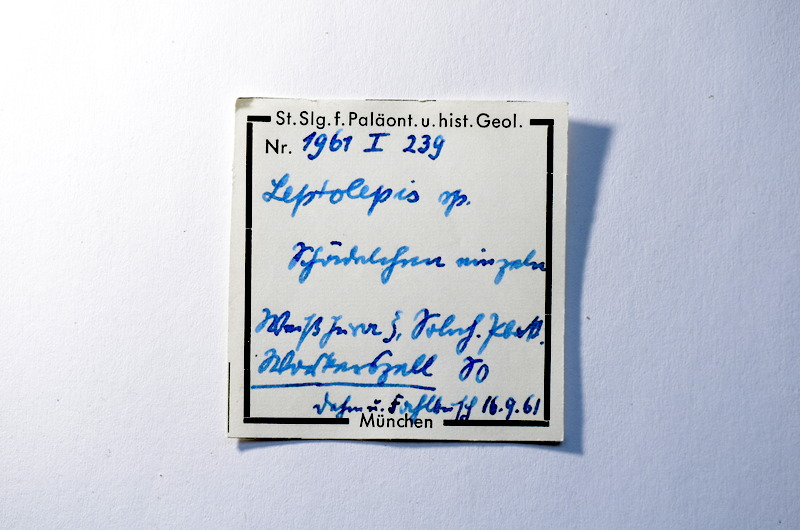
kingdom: Animalia
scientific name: Animalia
